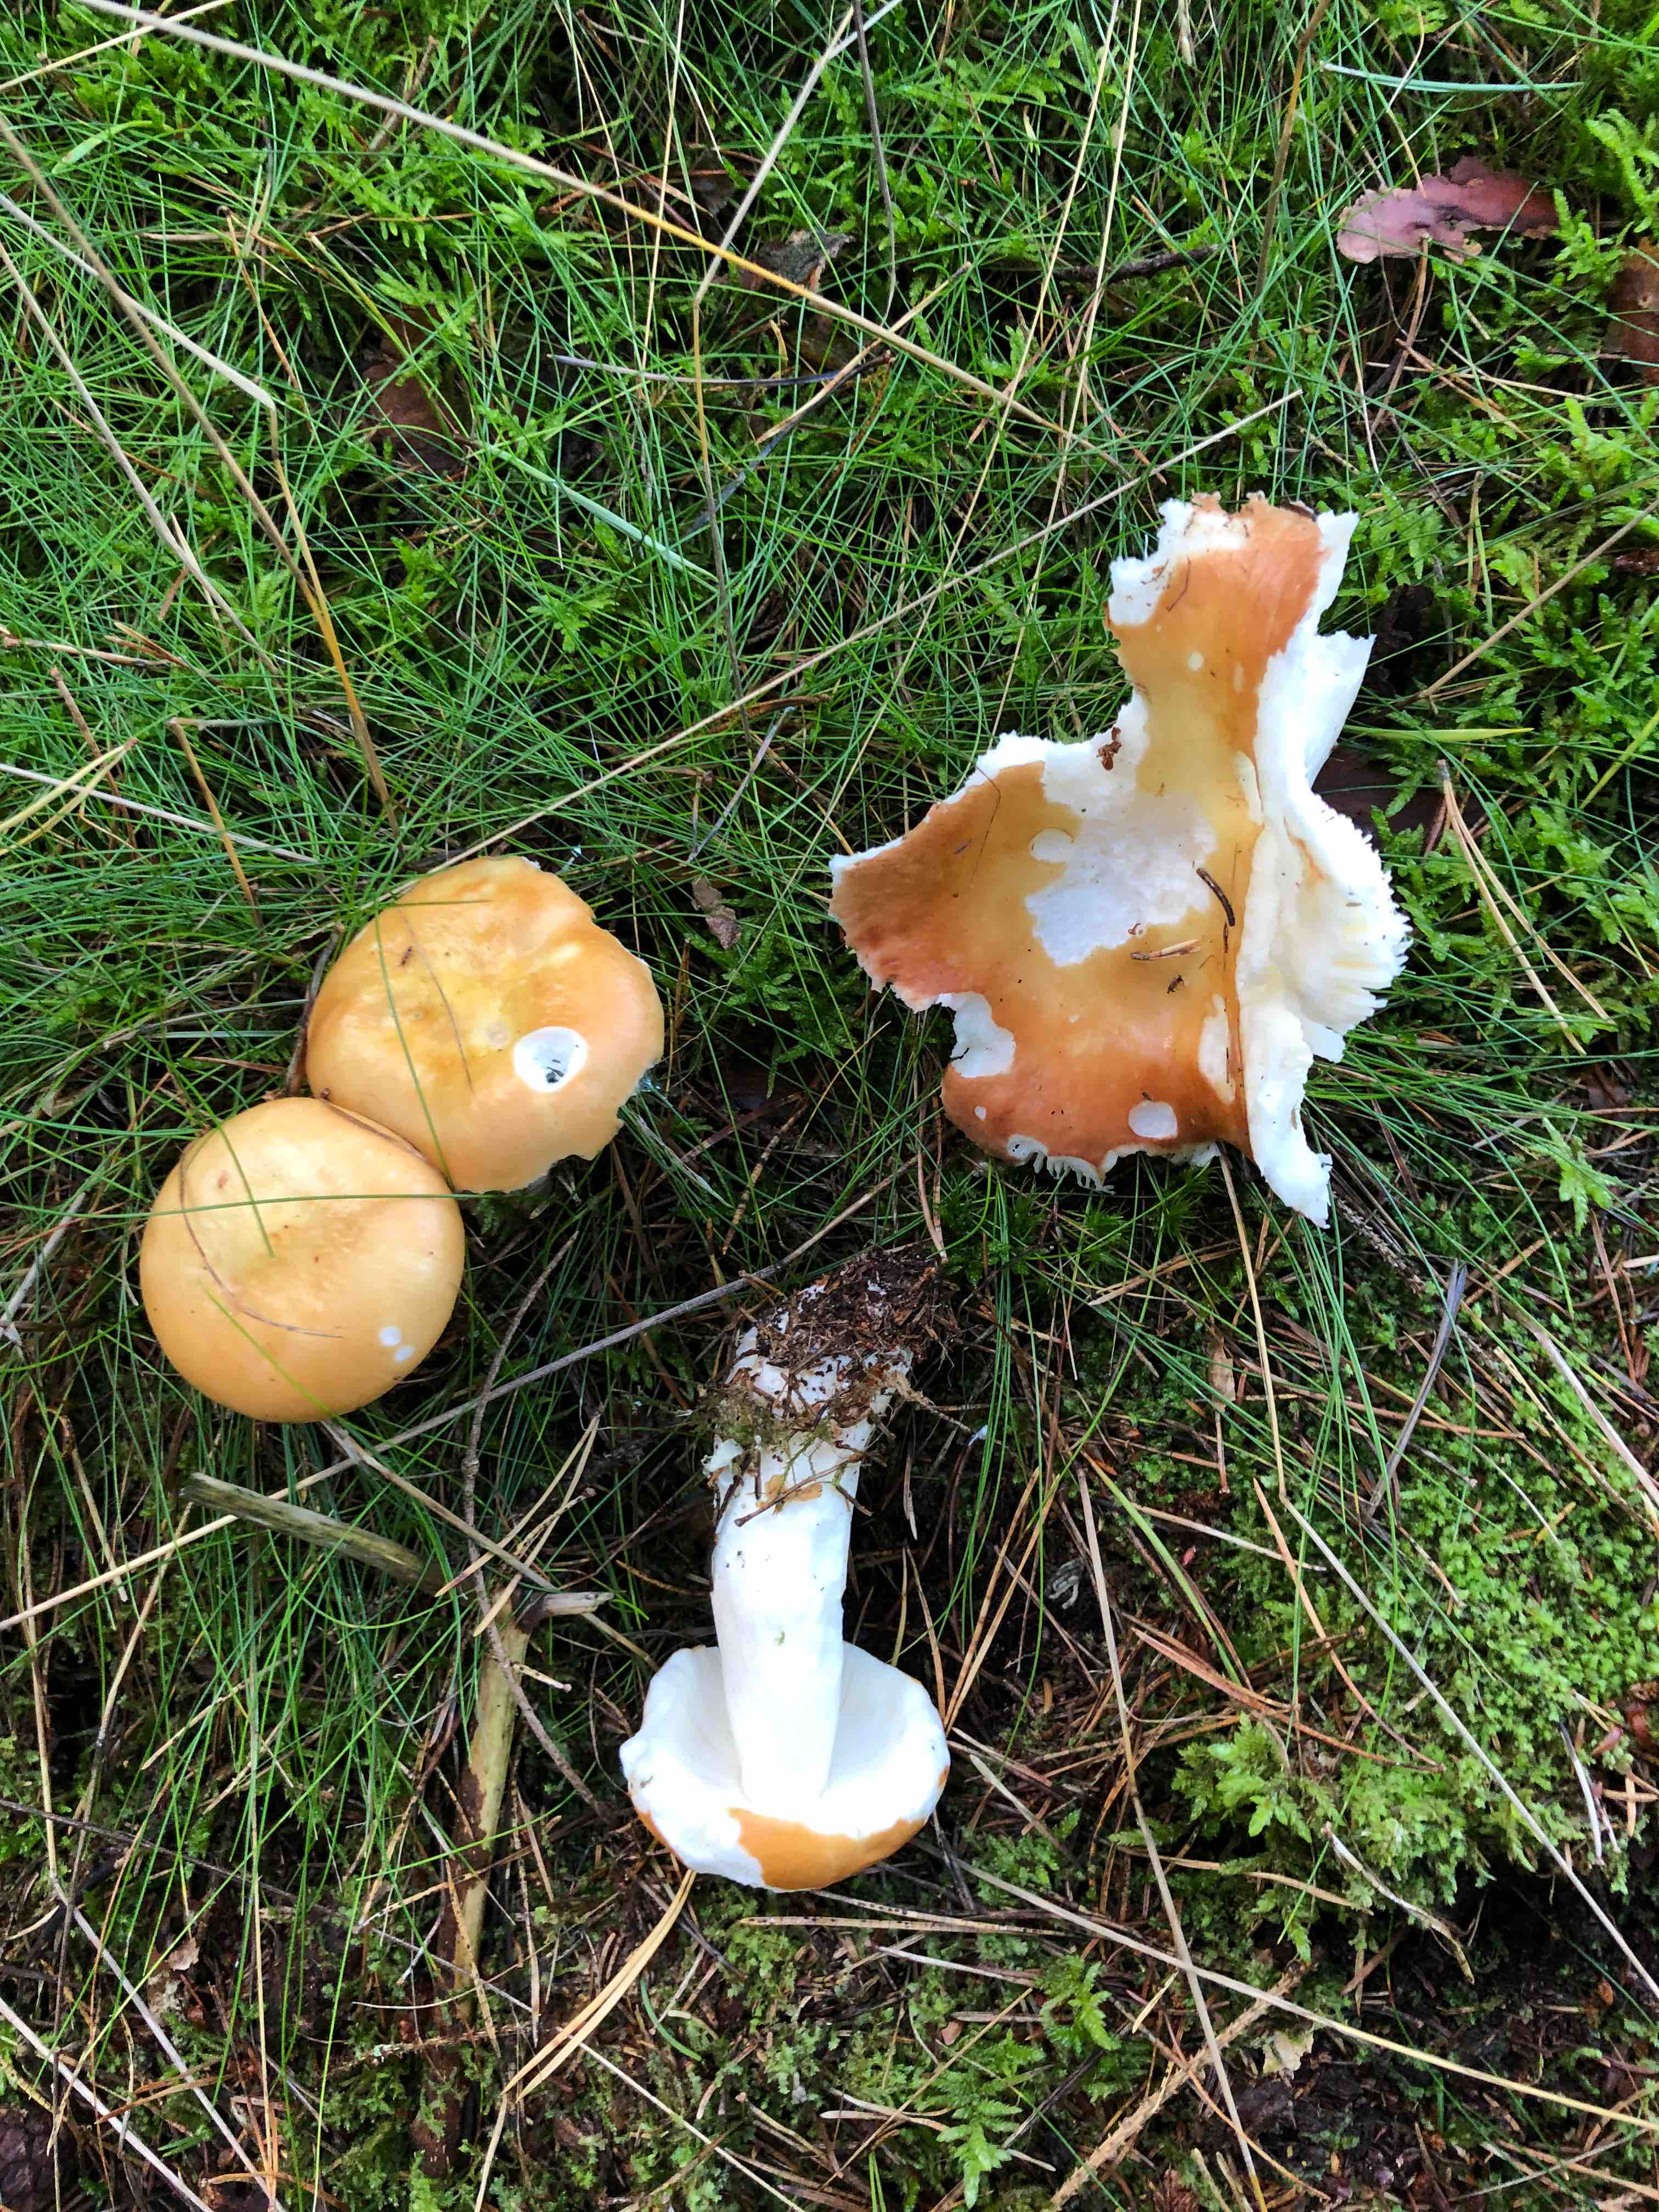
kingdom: Fungi
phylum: Basidiomycota
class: Agaricomycetes
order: Russulales
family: Russulaceae
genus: Russula
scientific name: Russula paludosa
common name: prægtig skørhat
